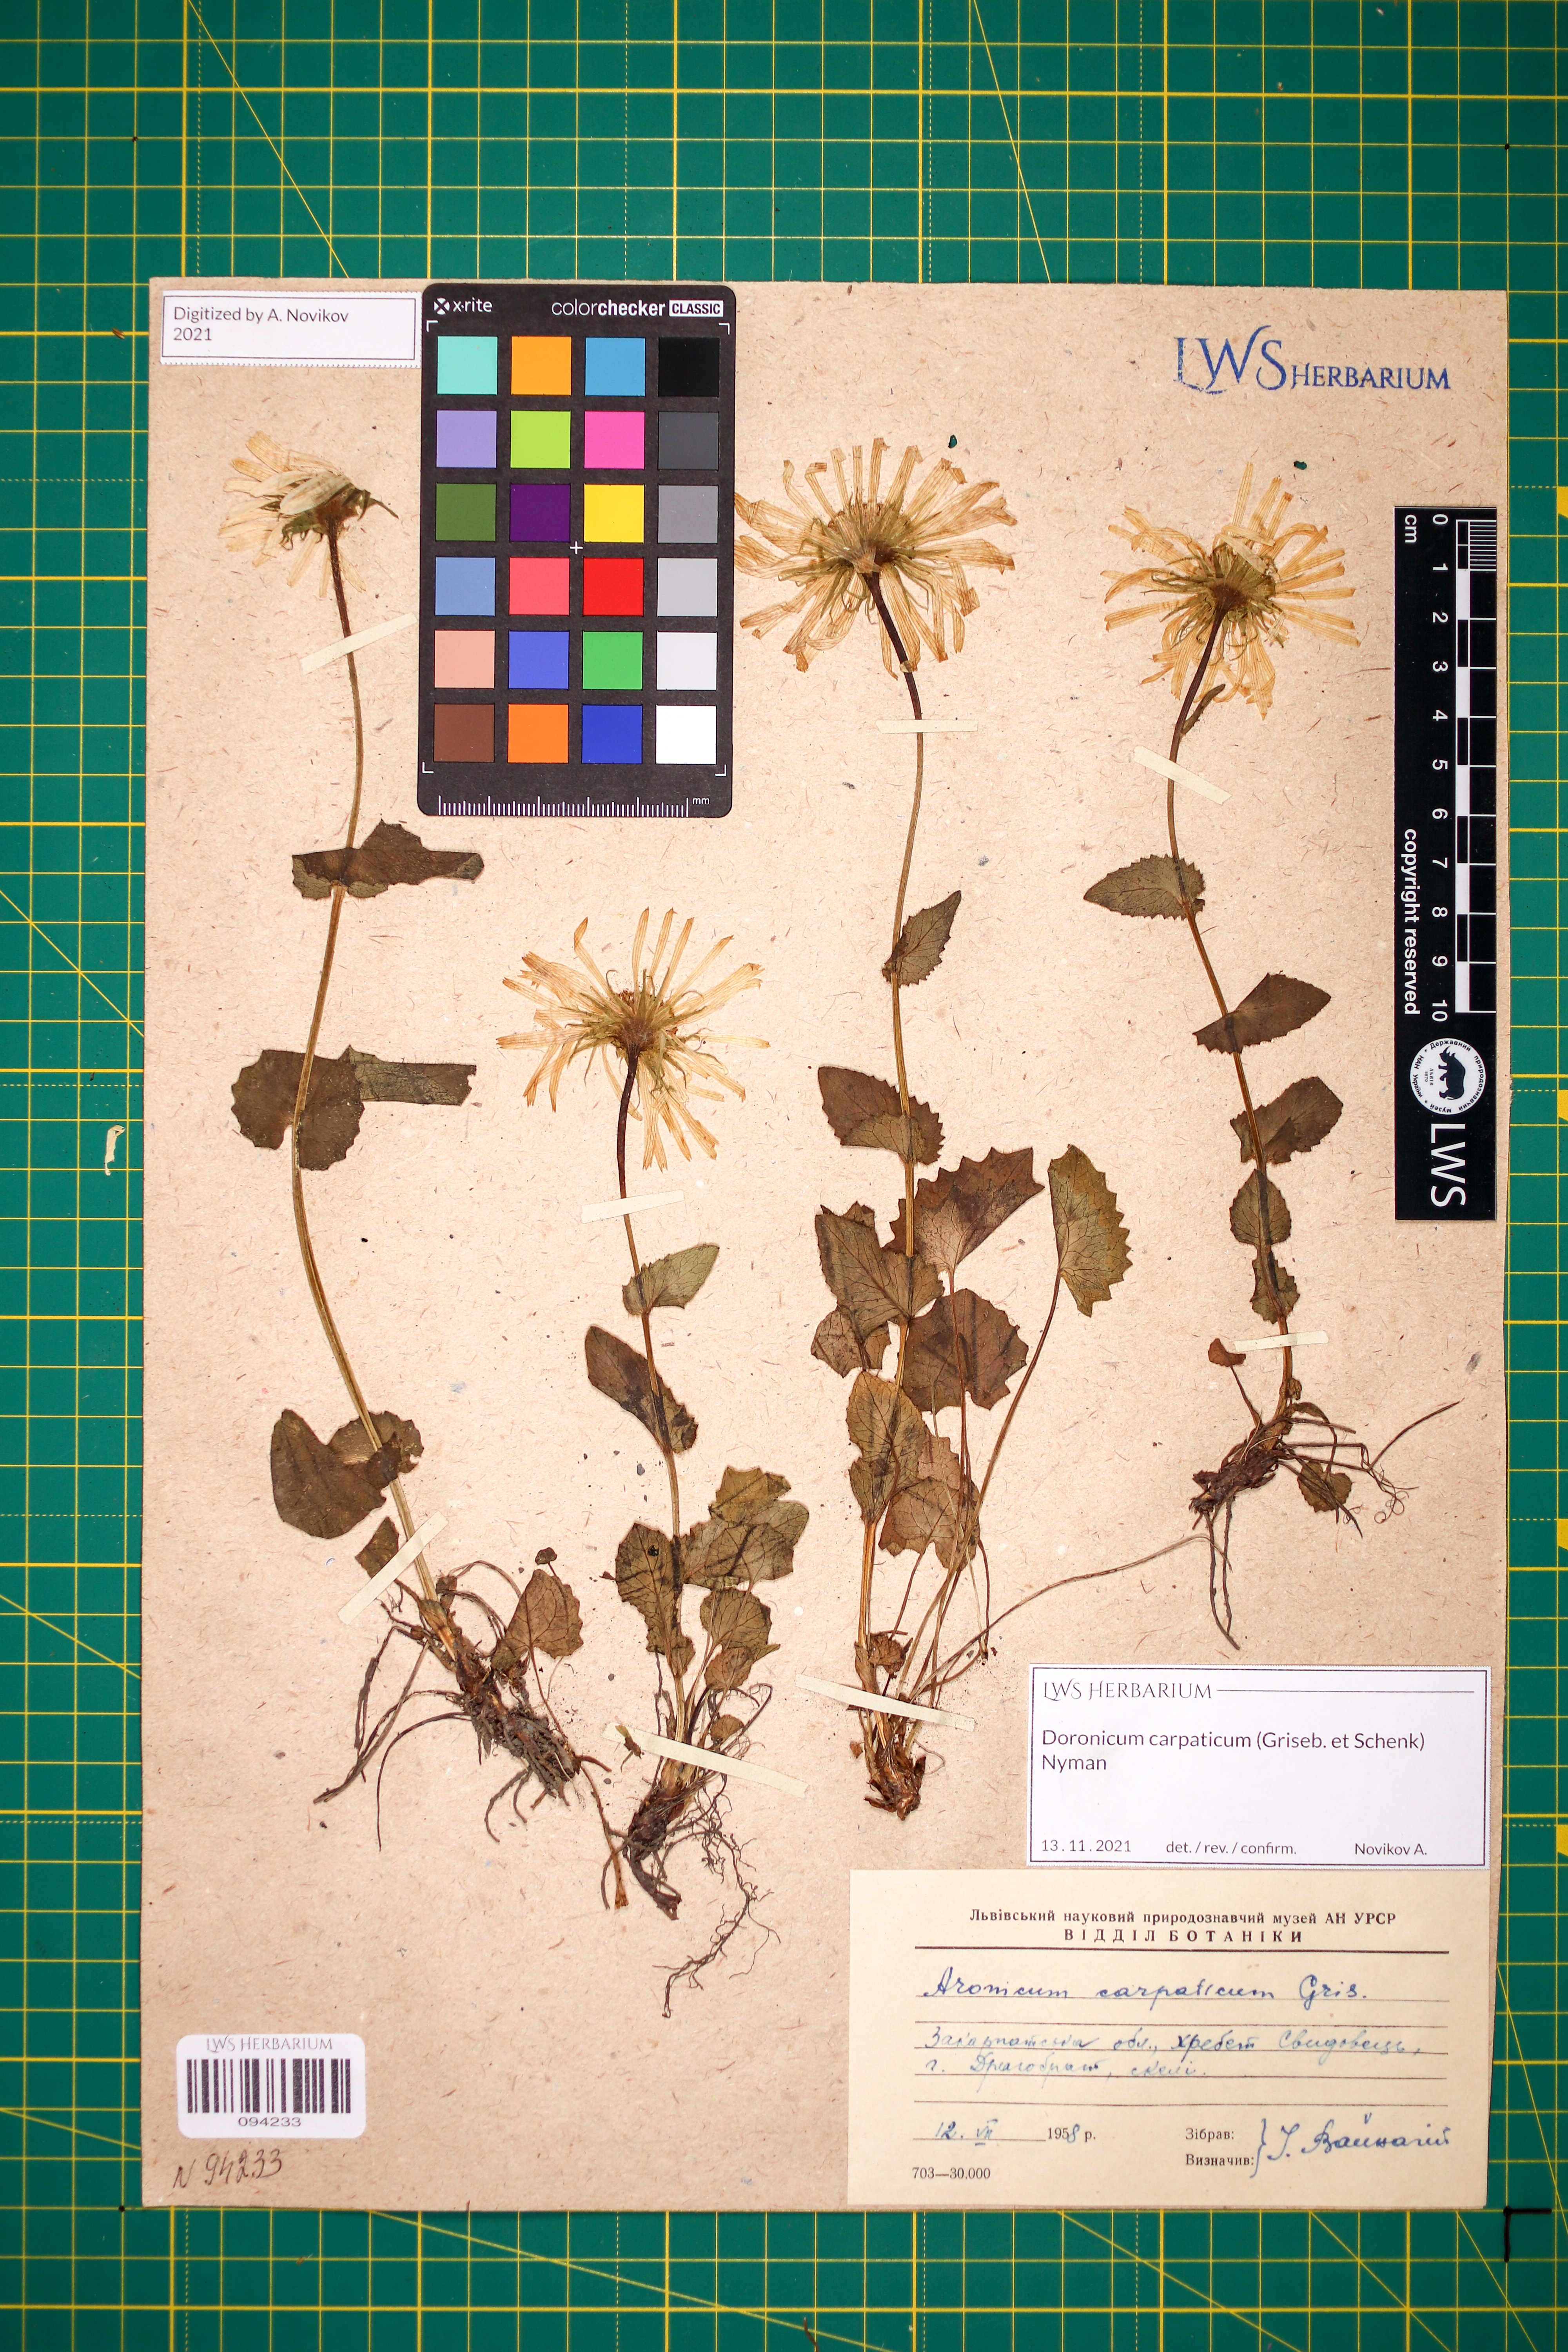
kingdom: Plantae
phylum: Tracheophyta
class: Magnoliopsida
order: Asterales
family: Asteraceae
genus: Doronicum
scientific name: Doronicum carpaticum
